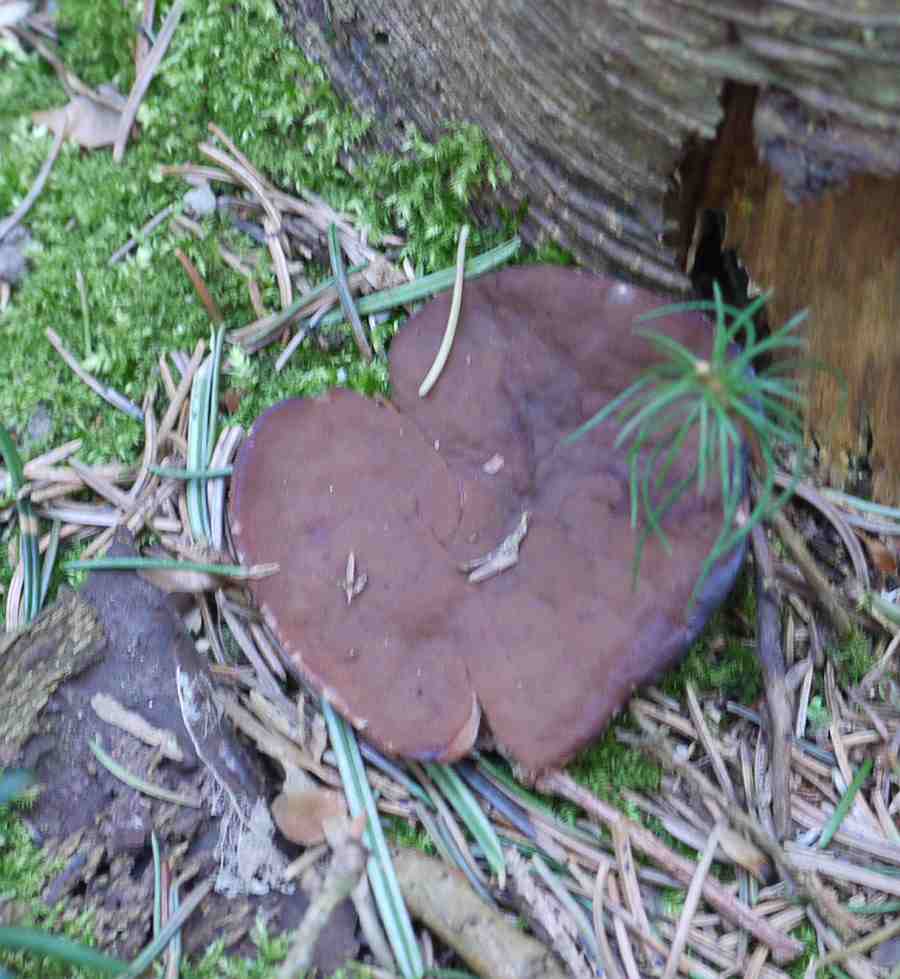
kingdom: Fungi
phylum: Ascomycota
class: Pezizomycetes
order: Pezizales
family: Discinaceae
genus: Discina
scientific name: Discina ancilis
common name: udbredt stenmorkel
